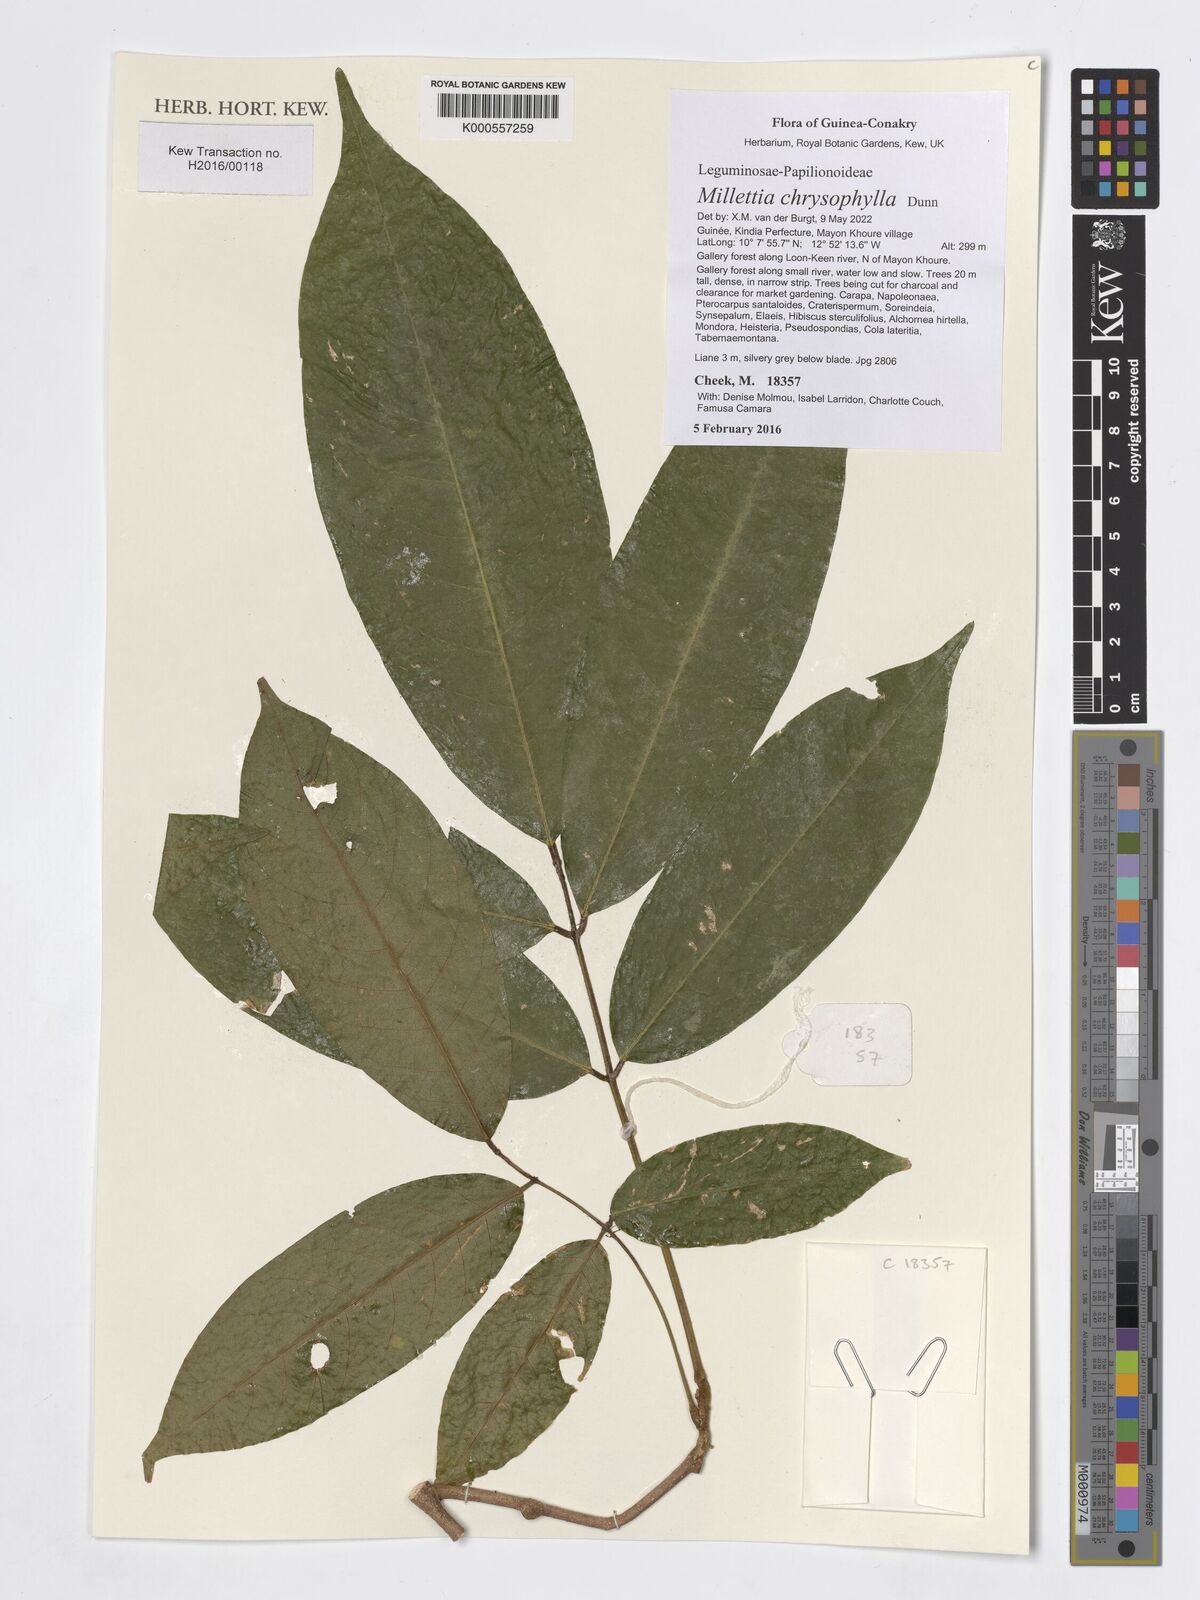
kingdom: Plantae
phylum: Tracheophyta
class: Magnoliopsida
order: Fabales
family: Fabaceae
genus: Millettia
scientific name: Millettia chrysophylla
